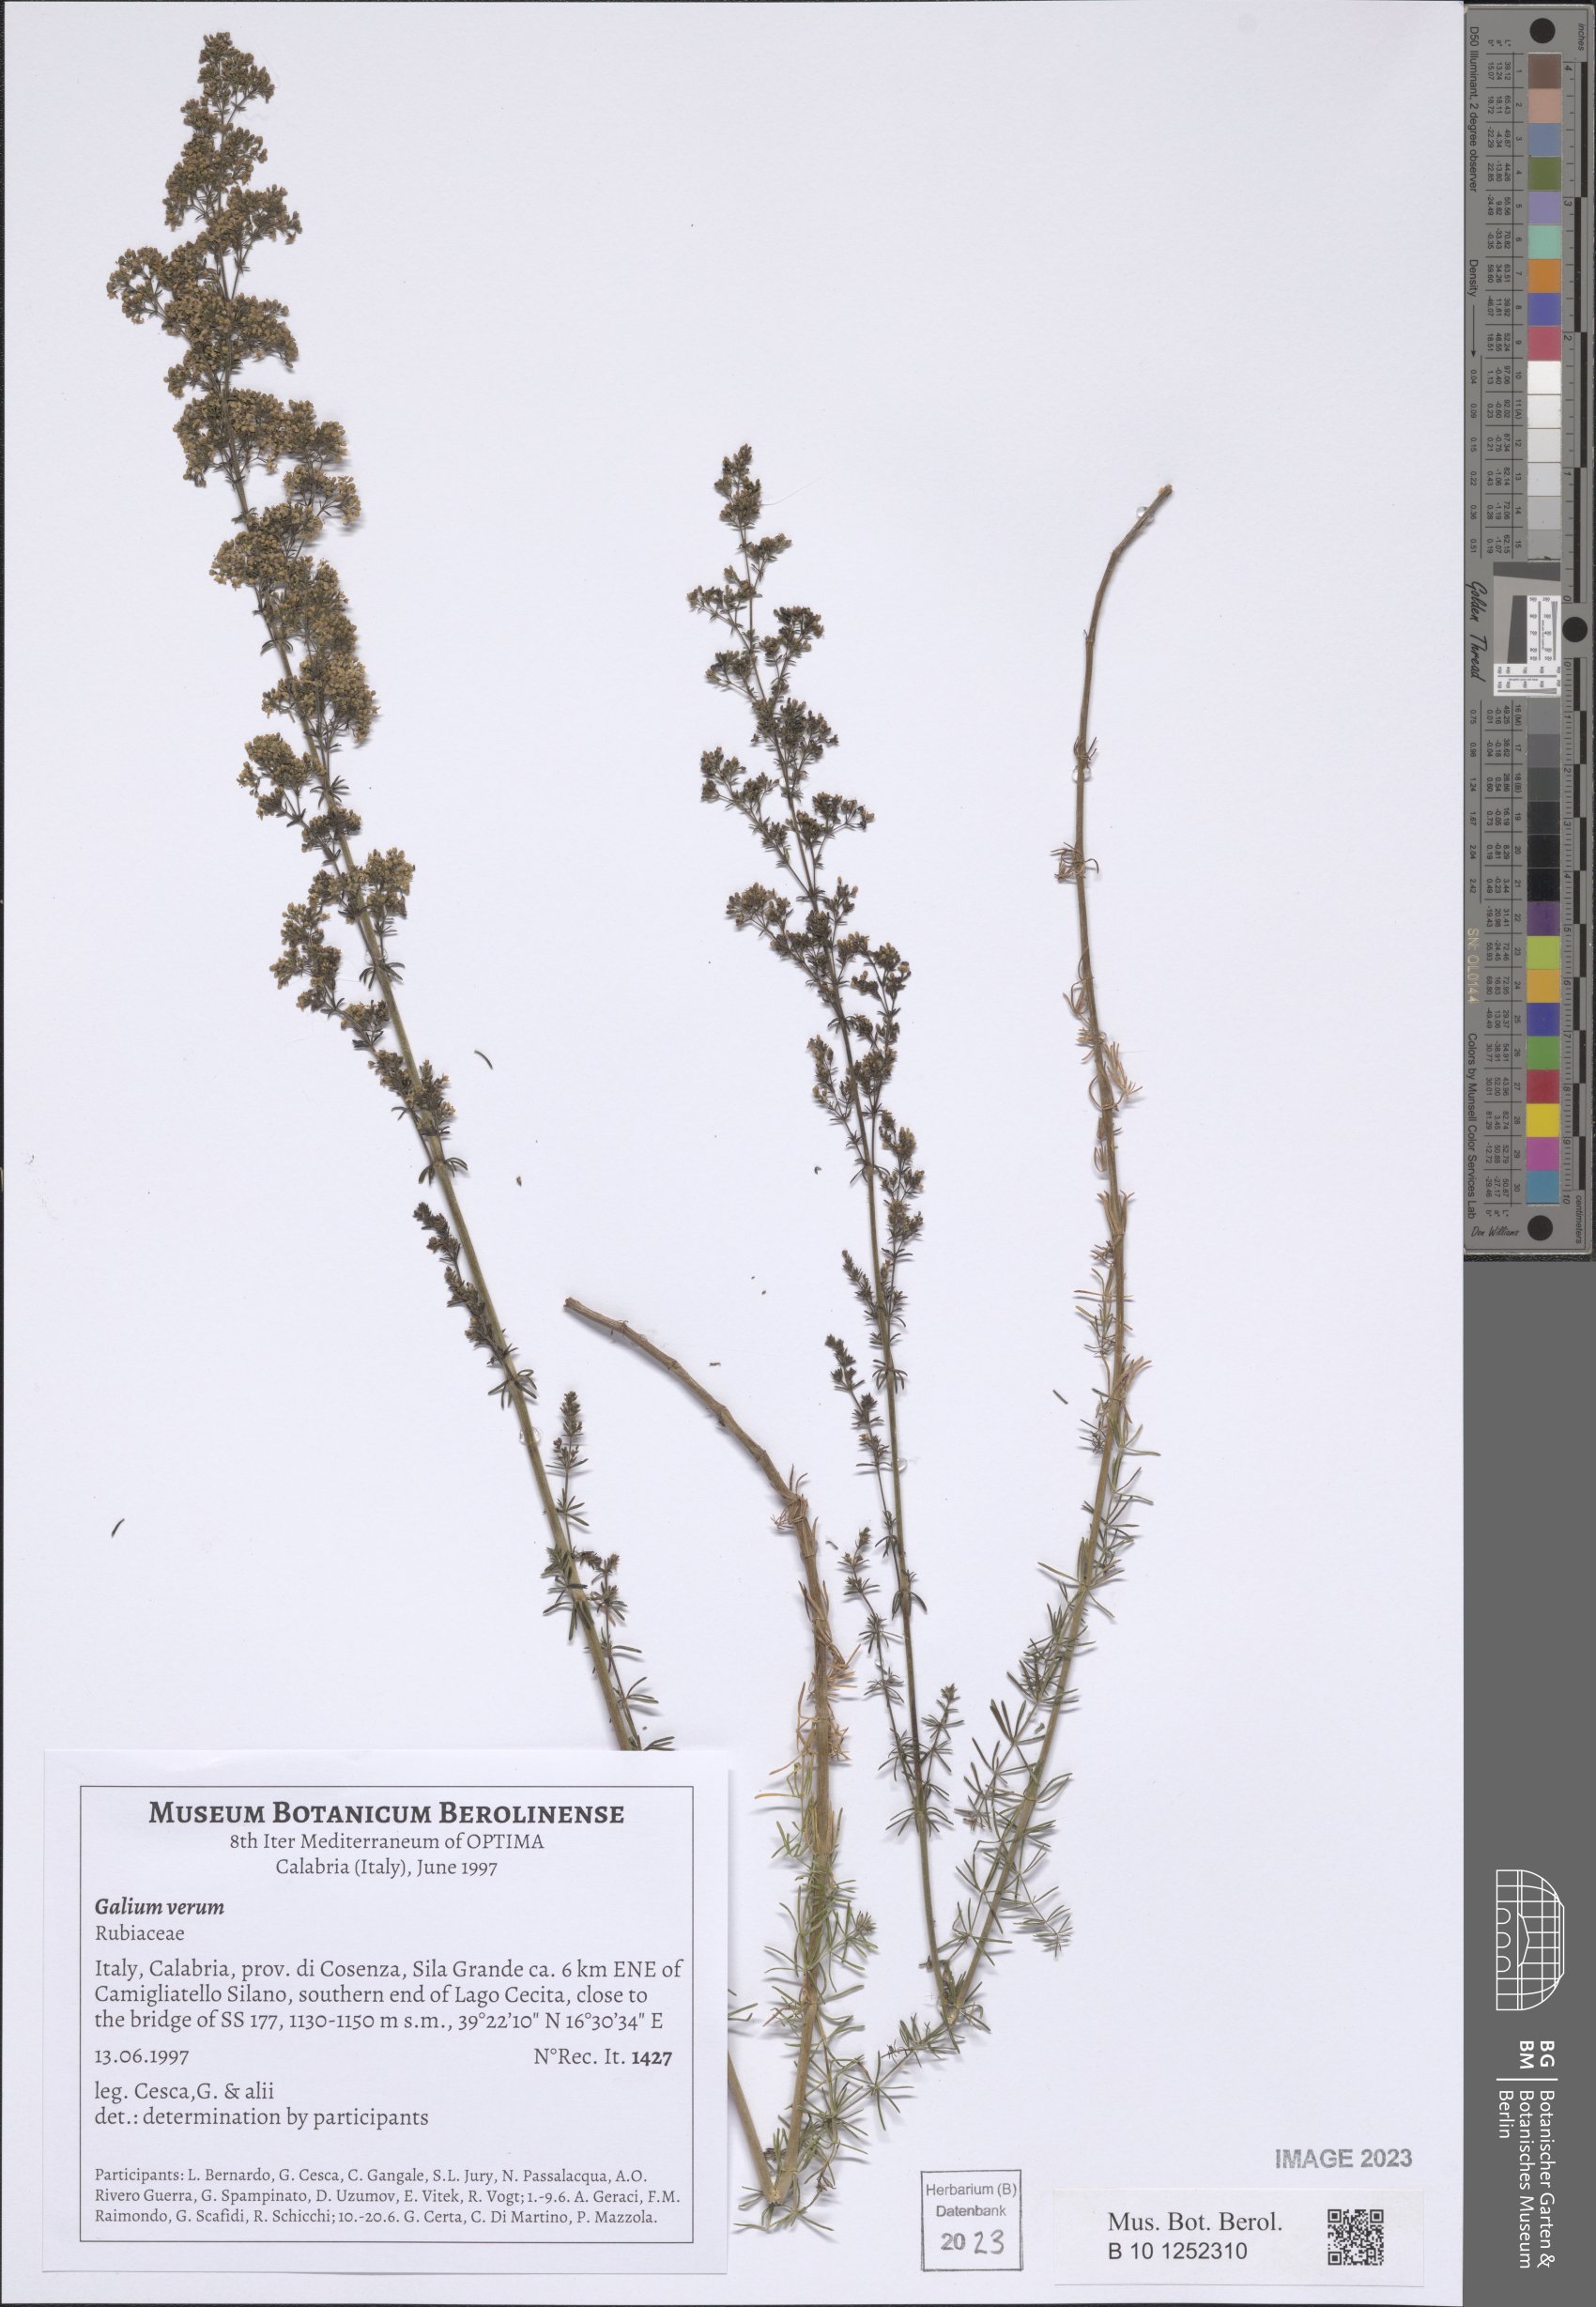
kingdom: Plantae
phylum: Tracheophyta
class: Magnoliopsida
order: Gentianales
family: Rubiaceae
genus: Galium
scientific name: Galium verum
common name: Lady's bedstraw
